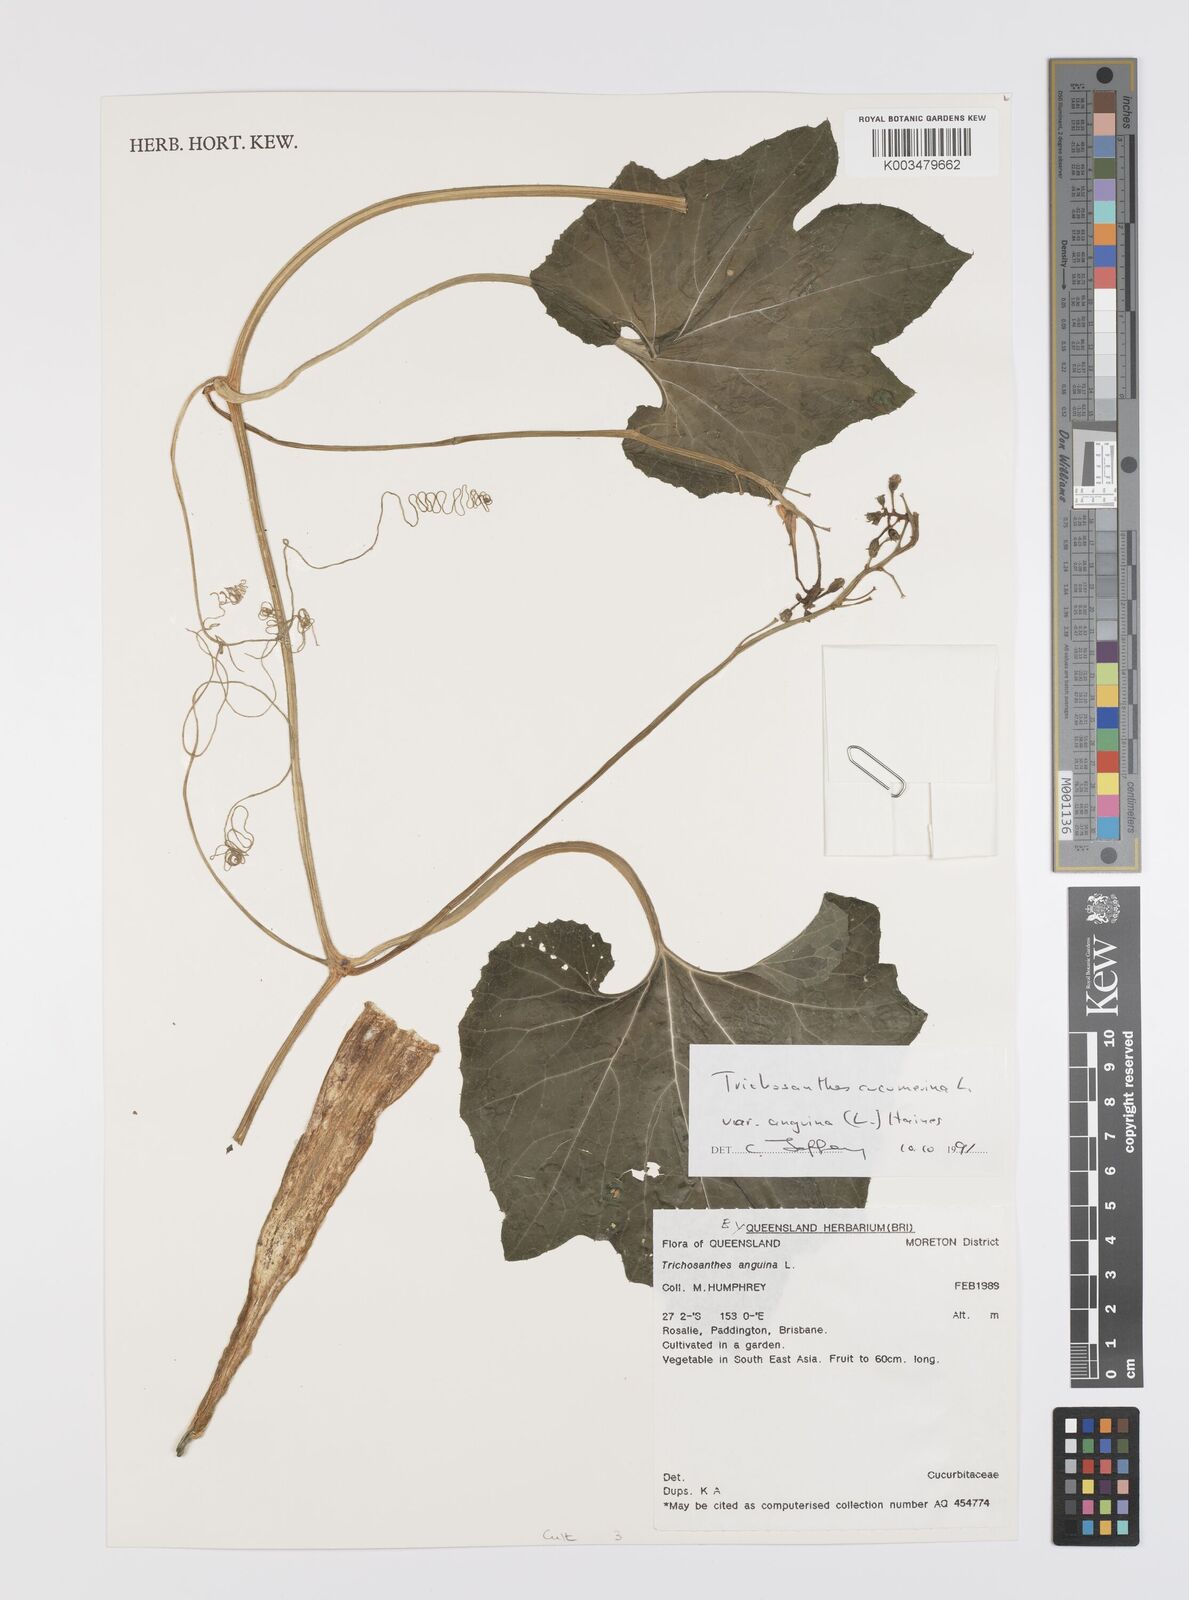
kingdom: Plantae
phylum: Tracheophyta
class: Magnoliopsida
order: Cucurbitales
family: Cucurbitaceae
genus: Trichosanthes
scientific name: Trichosanthes cucumerina
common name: Snakegourd
